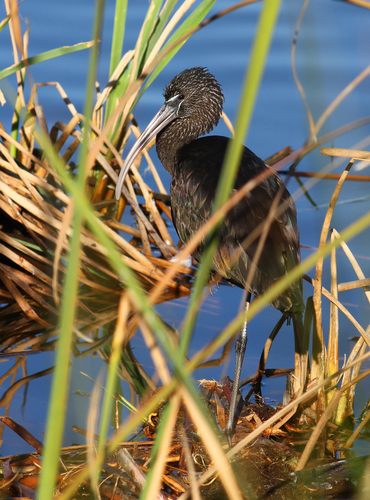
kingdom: Animalia
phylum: Chordata
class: Aves
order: Pelecaniformes
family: Threskiornithidae
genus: Plegadis
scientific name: Plegadis falcinellus
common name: Glossy ibis
